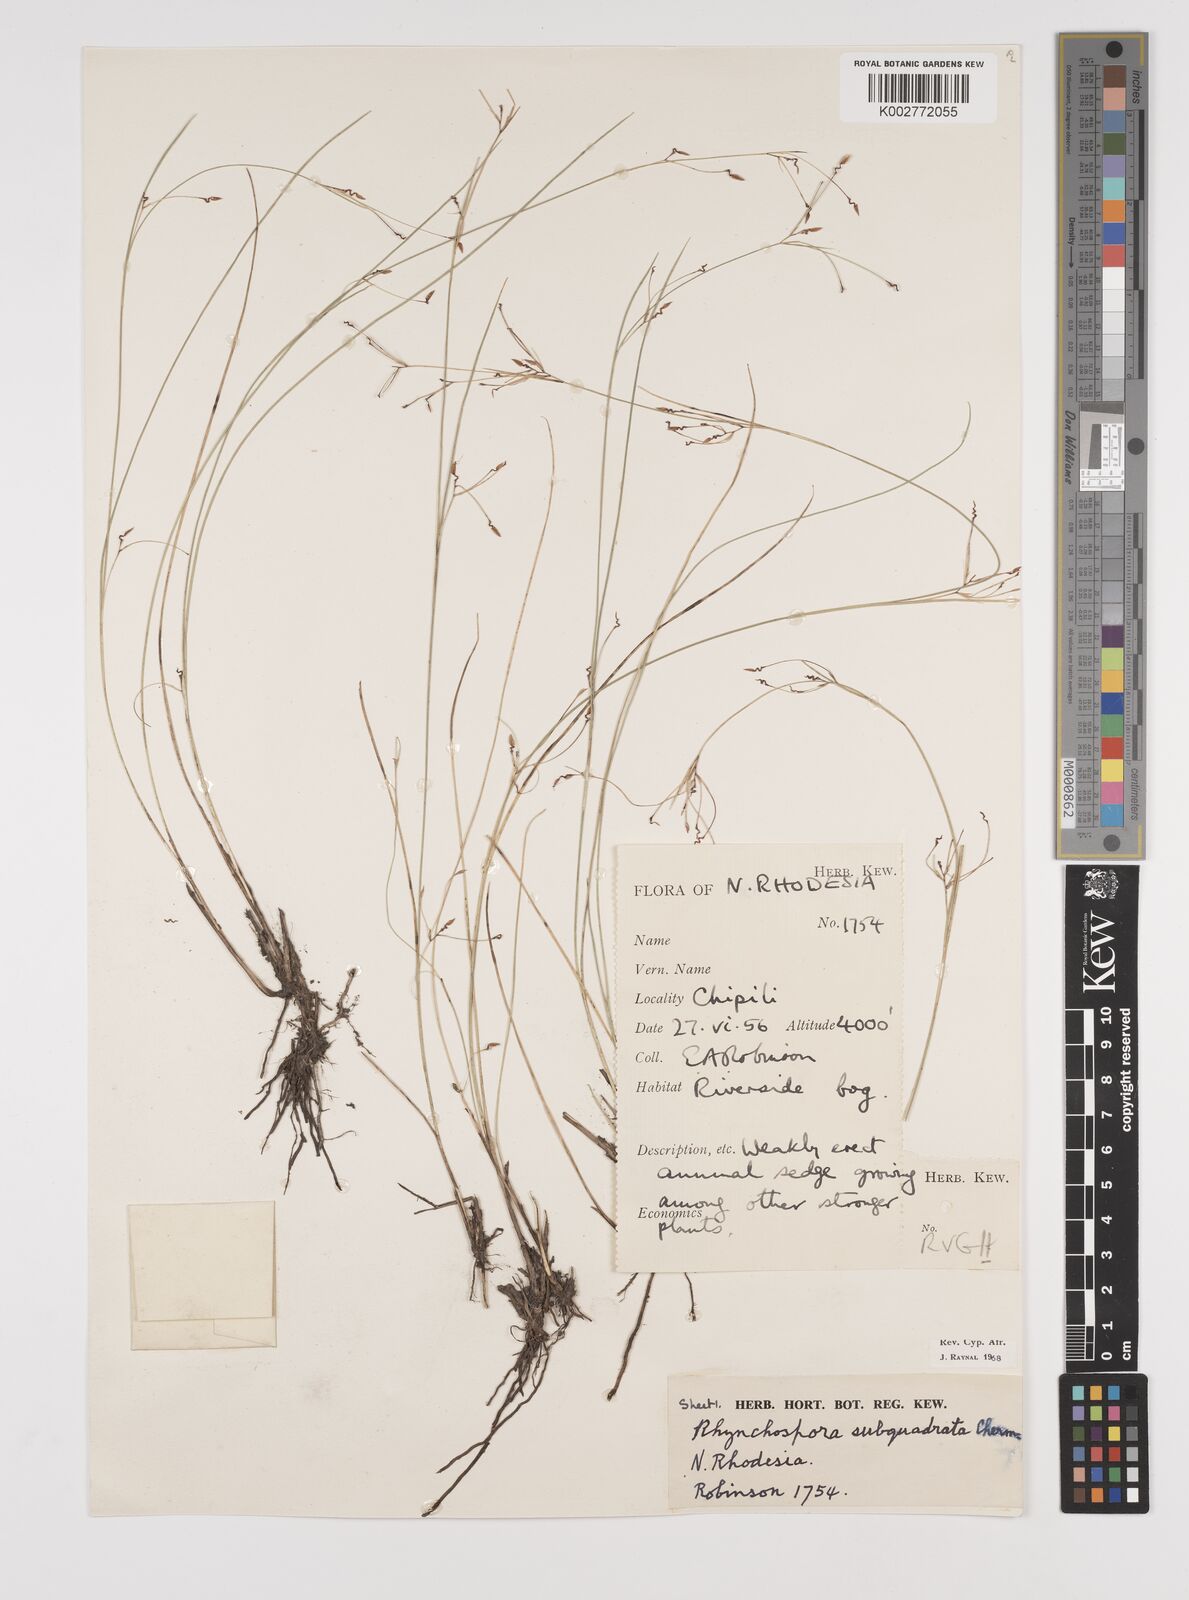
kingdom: Plantae
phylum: Tracheophyta
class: Liliopsida
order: Poales
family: Cyperaceae
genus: Rhynchospora
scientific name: Rhynchospora gracillima
